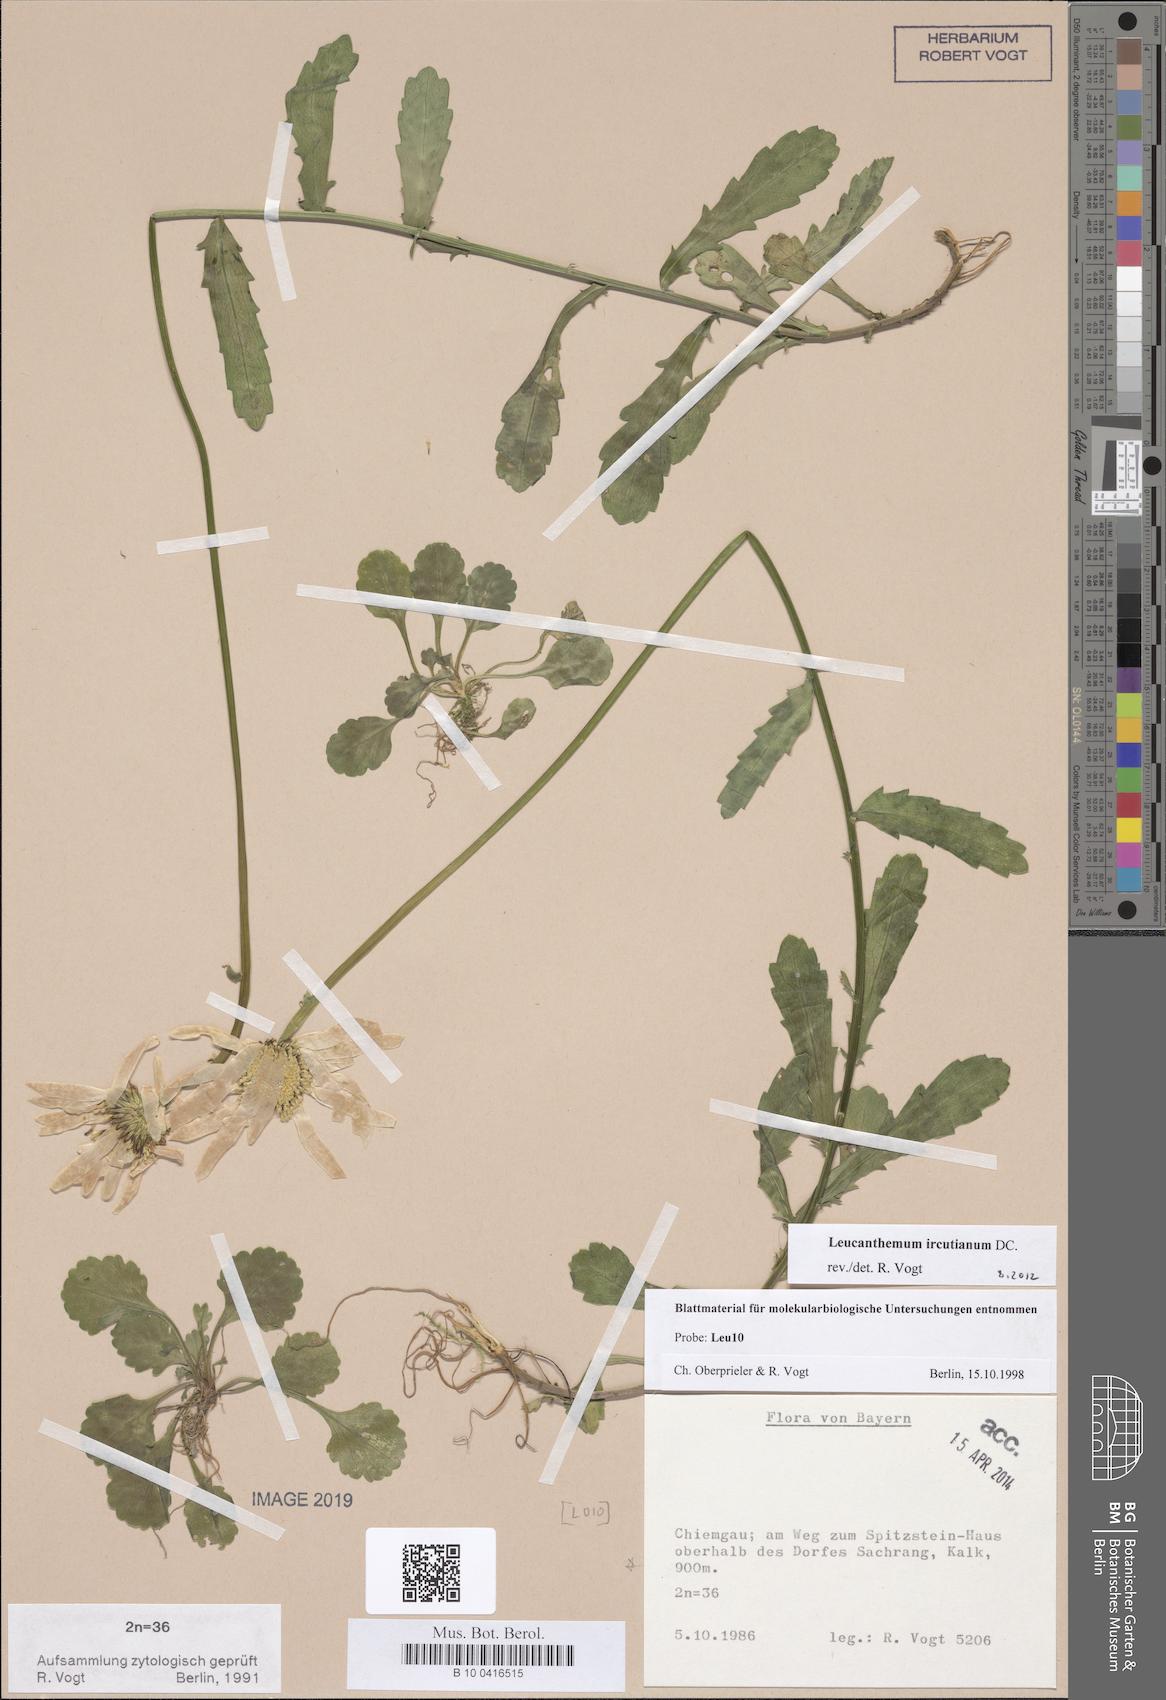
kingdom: Plantae
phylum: Tracheophyta
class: Magnoliopsida
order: Asterales
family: Asteraceae
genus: Leucanthemum
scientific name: Leucanthemum ircutianum
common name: Daisy
